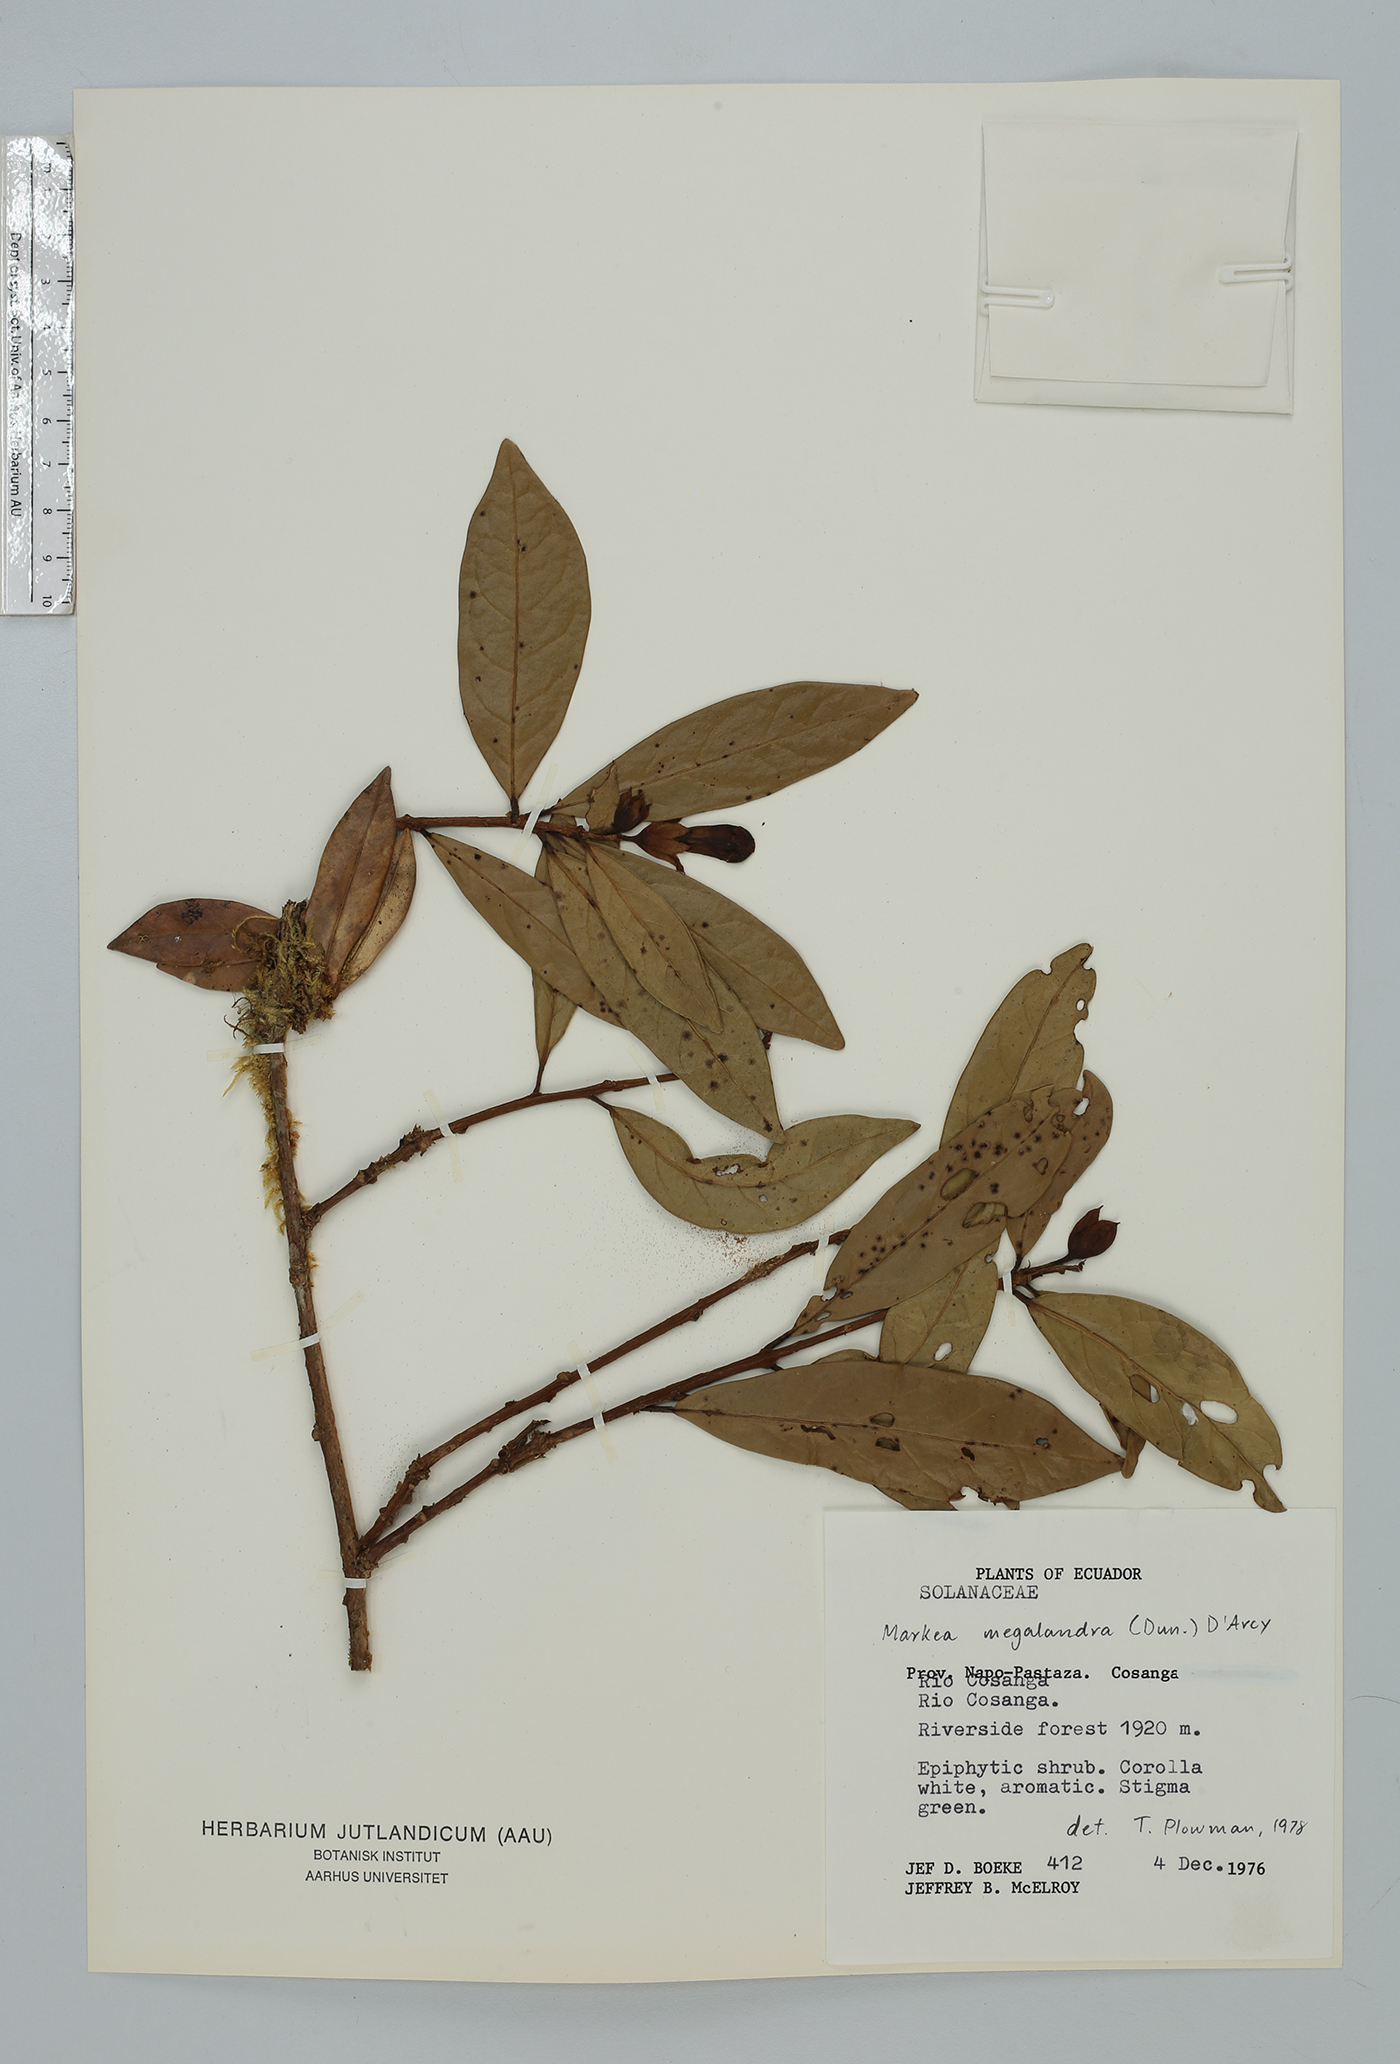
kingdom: Plantae
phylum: Tracheophyta
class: Magnoliopsida
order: Solanales
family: Solanaceae
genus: Schultesianthus
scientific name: Schultesianthus leucanthus
